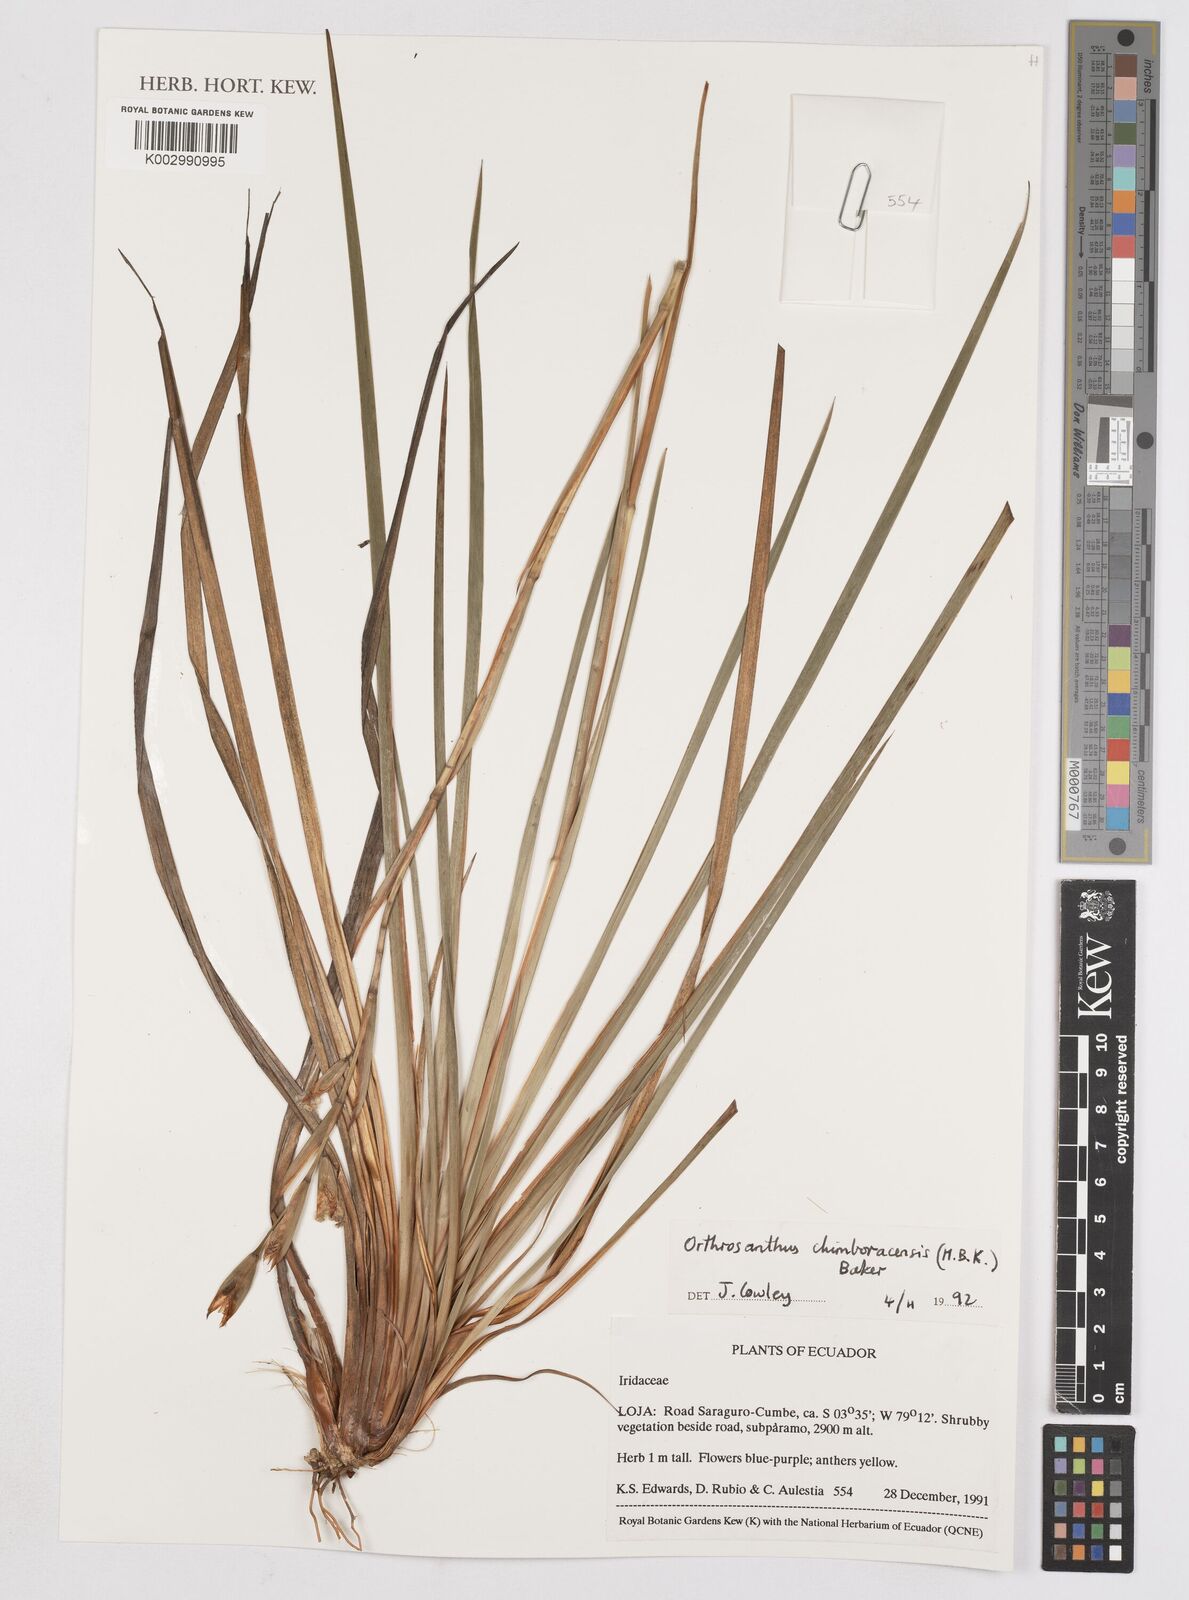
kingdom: Plantae
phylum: Tracheophyta
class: Liliopsida
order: Asparagales
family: Iridaceae
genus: Orthrosanthus
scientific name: Orthrosanthus chimboracensis
